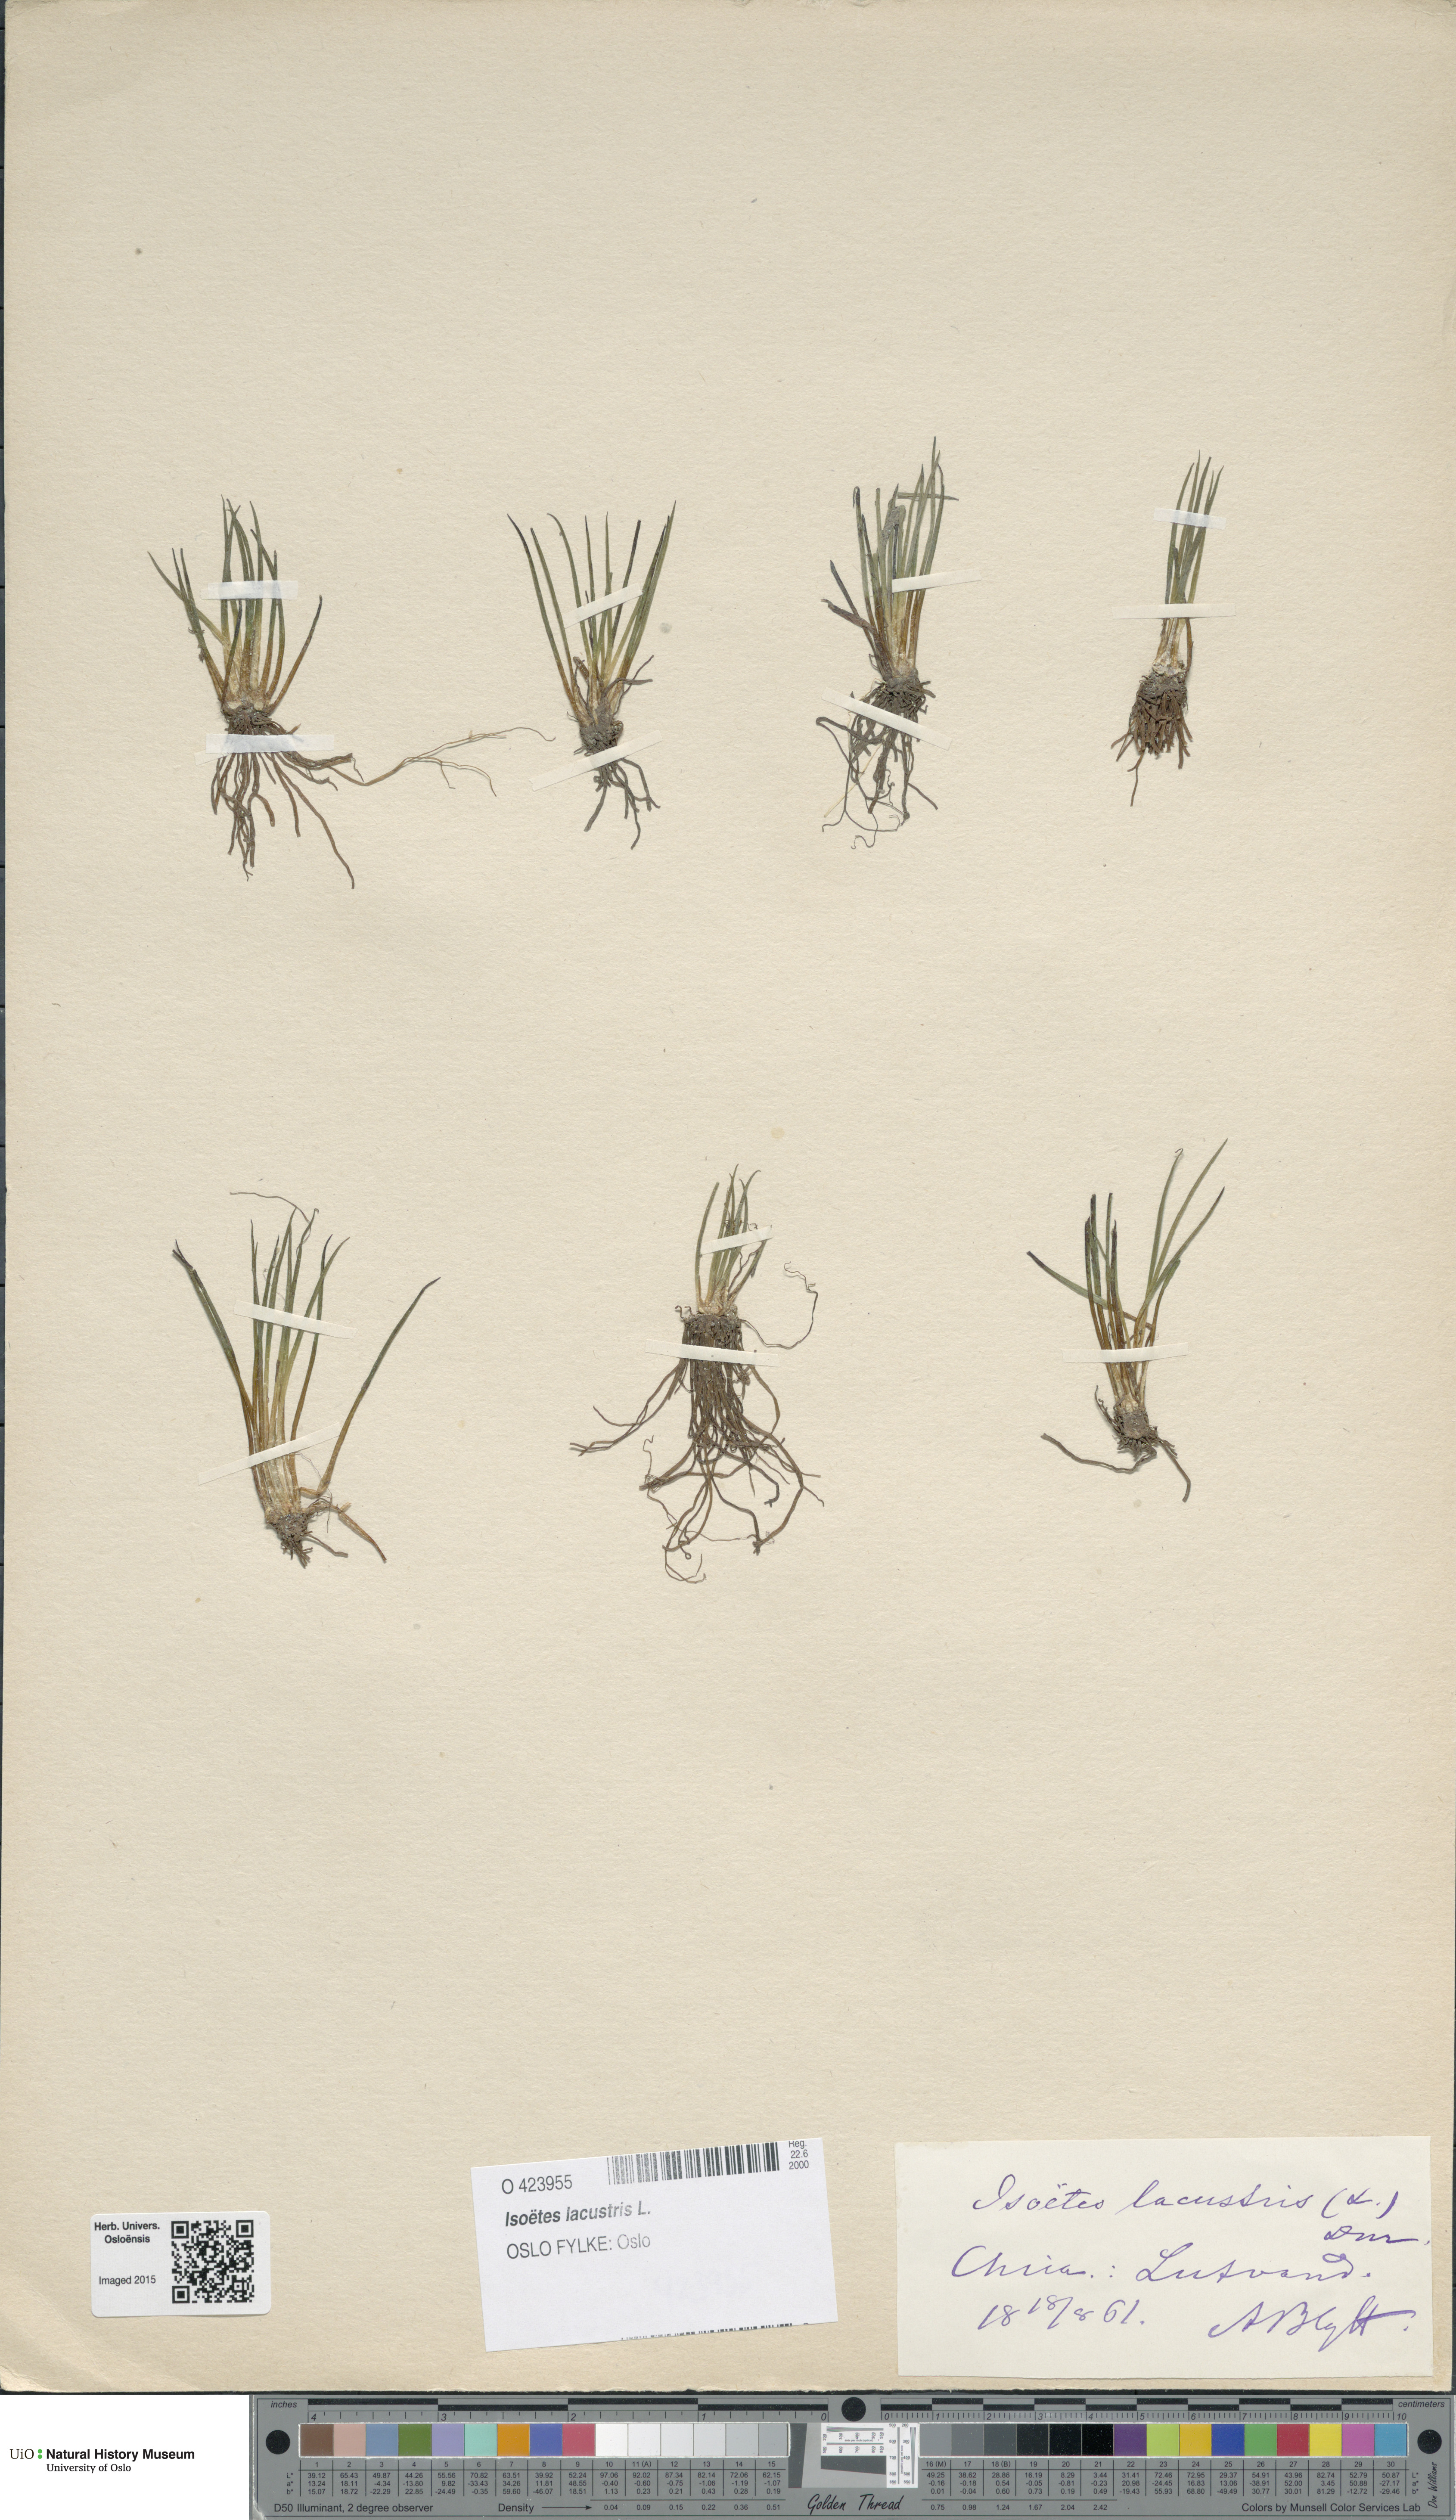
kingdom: Plantae
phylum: Tracheophyta
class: Lycopodiopsida
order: Isoetales
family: Isoetaceae
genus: Isoetes
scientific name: Isoetes lacustris
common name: Common quillwort
